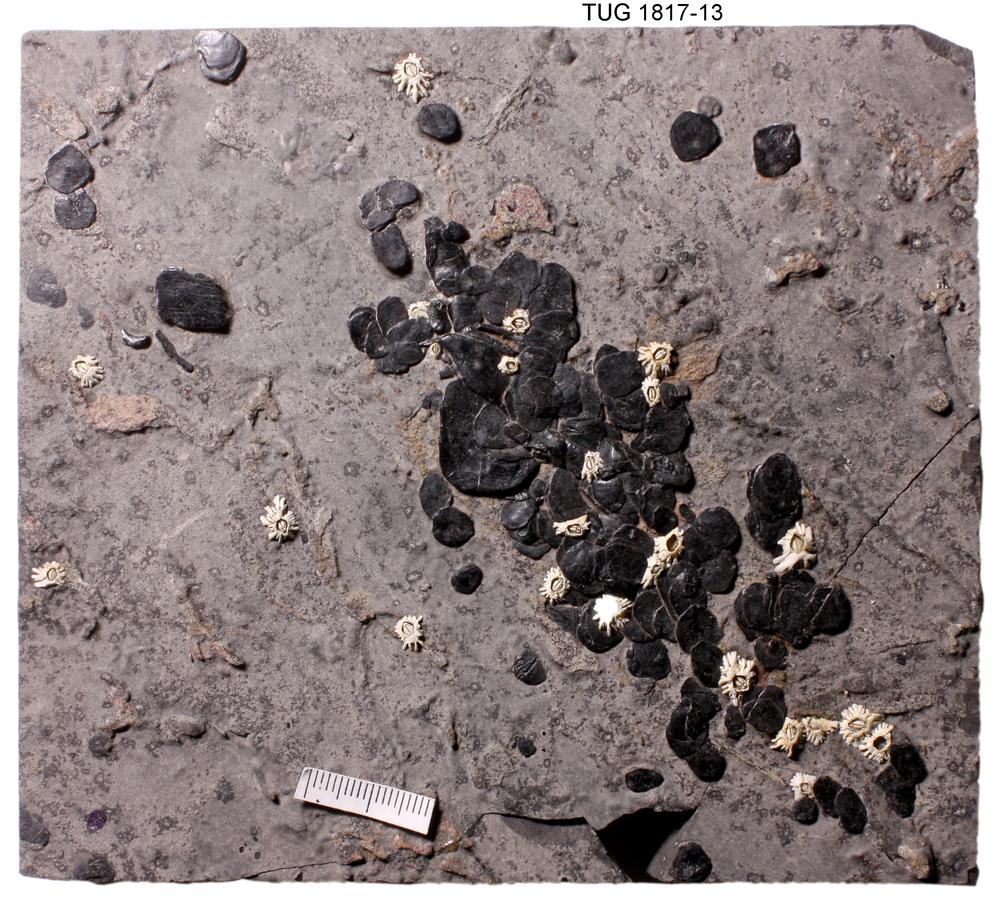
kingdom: Animalia
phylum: Chordata
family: Dipteridae
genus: Dipterus
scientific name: Dipterus valenciennesi
